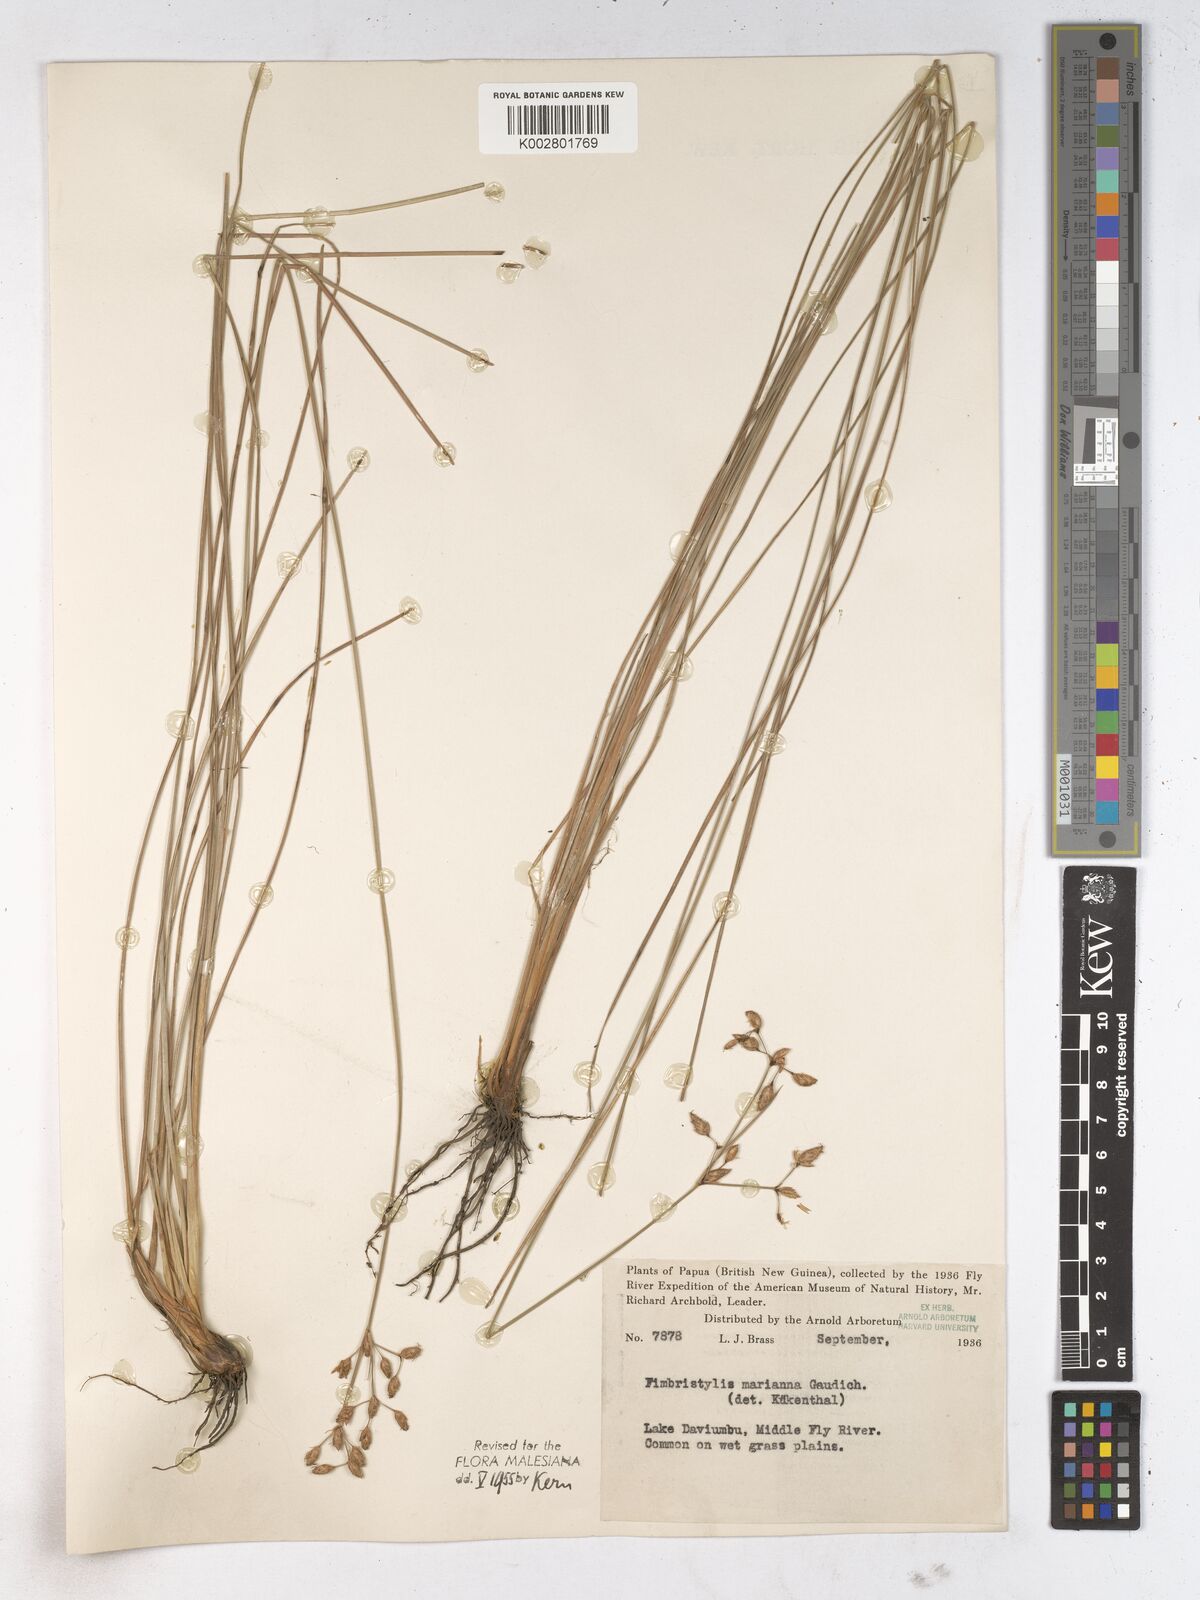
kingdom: Plantae
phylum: Tracheophyta
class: Liliopsida
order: Poales
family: Cyperaceae
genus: Fimbristylis
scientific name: Fimbristylis tristachya
